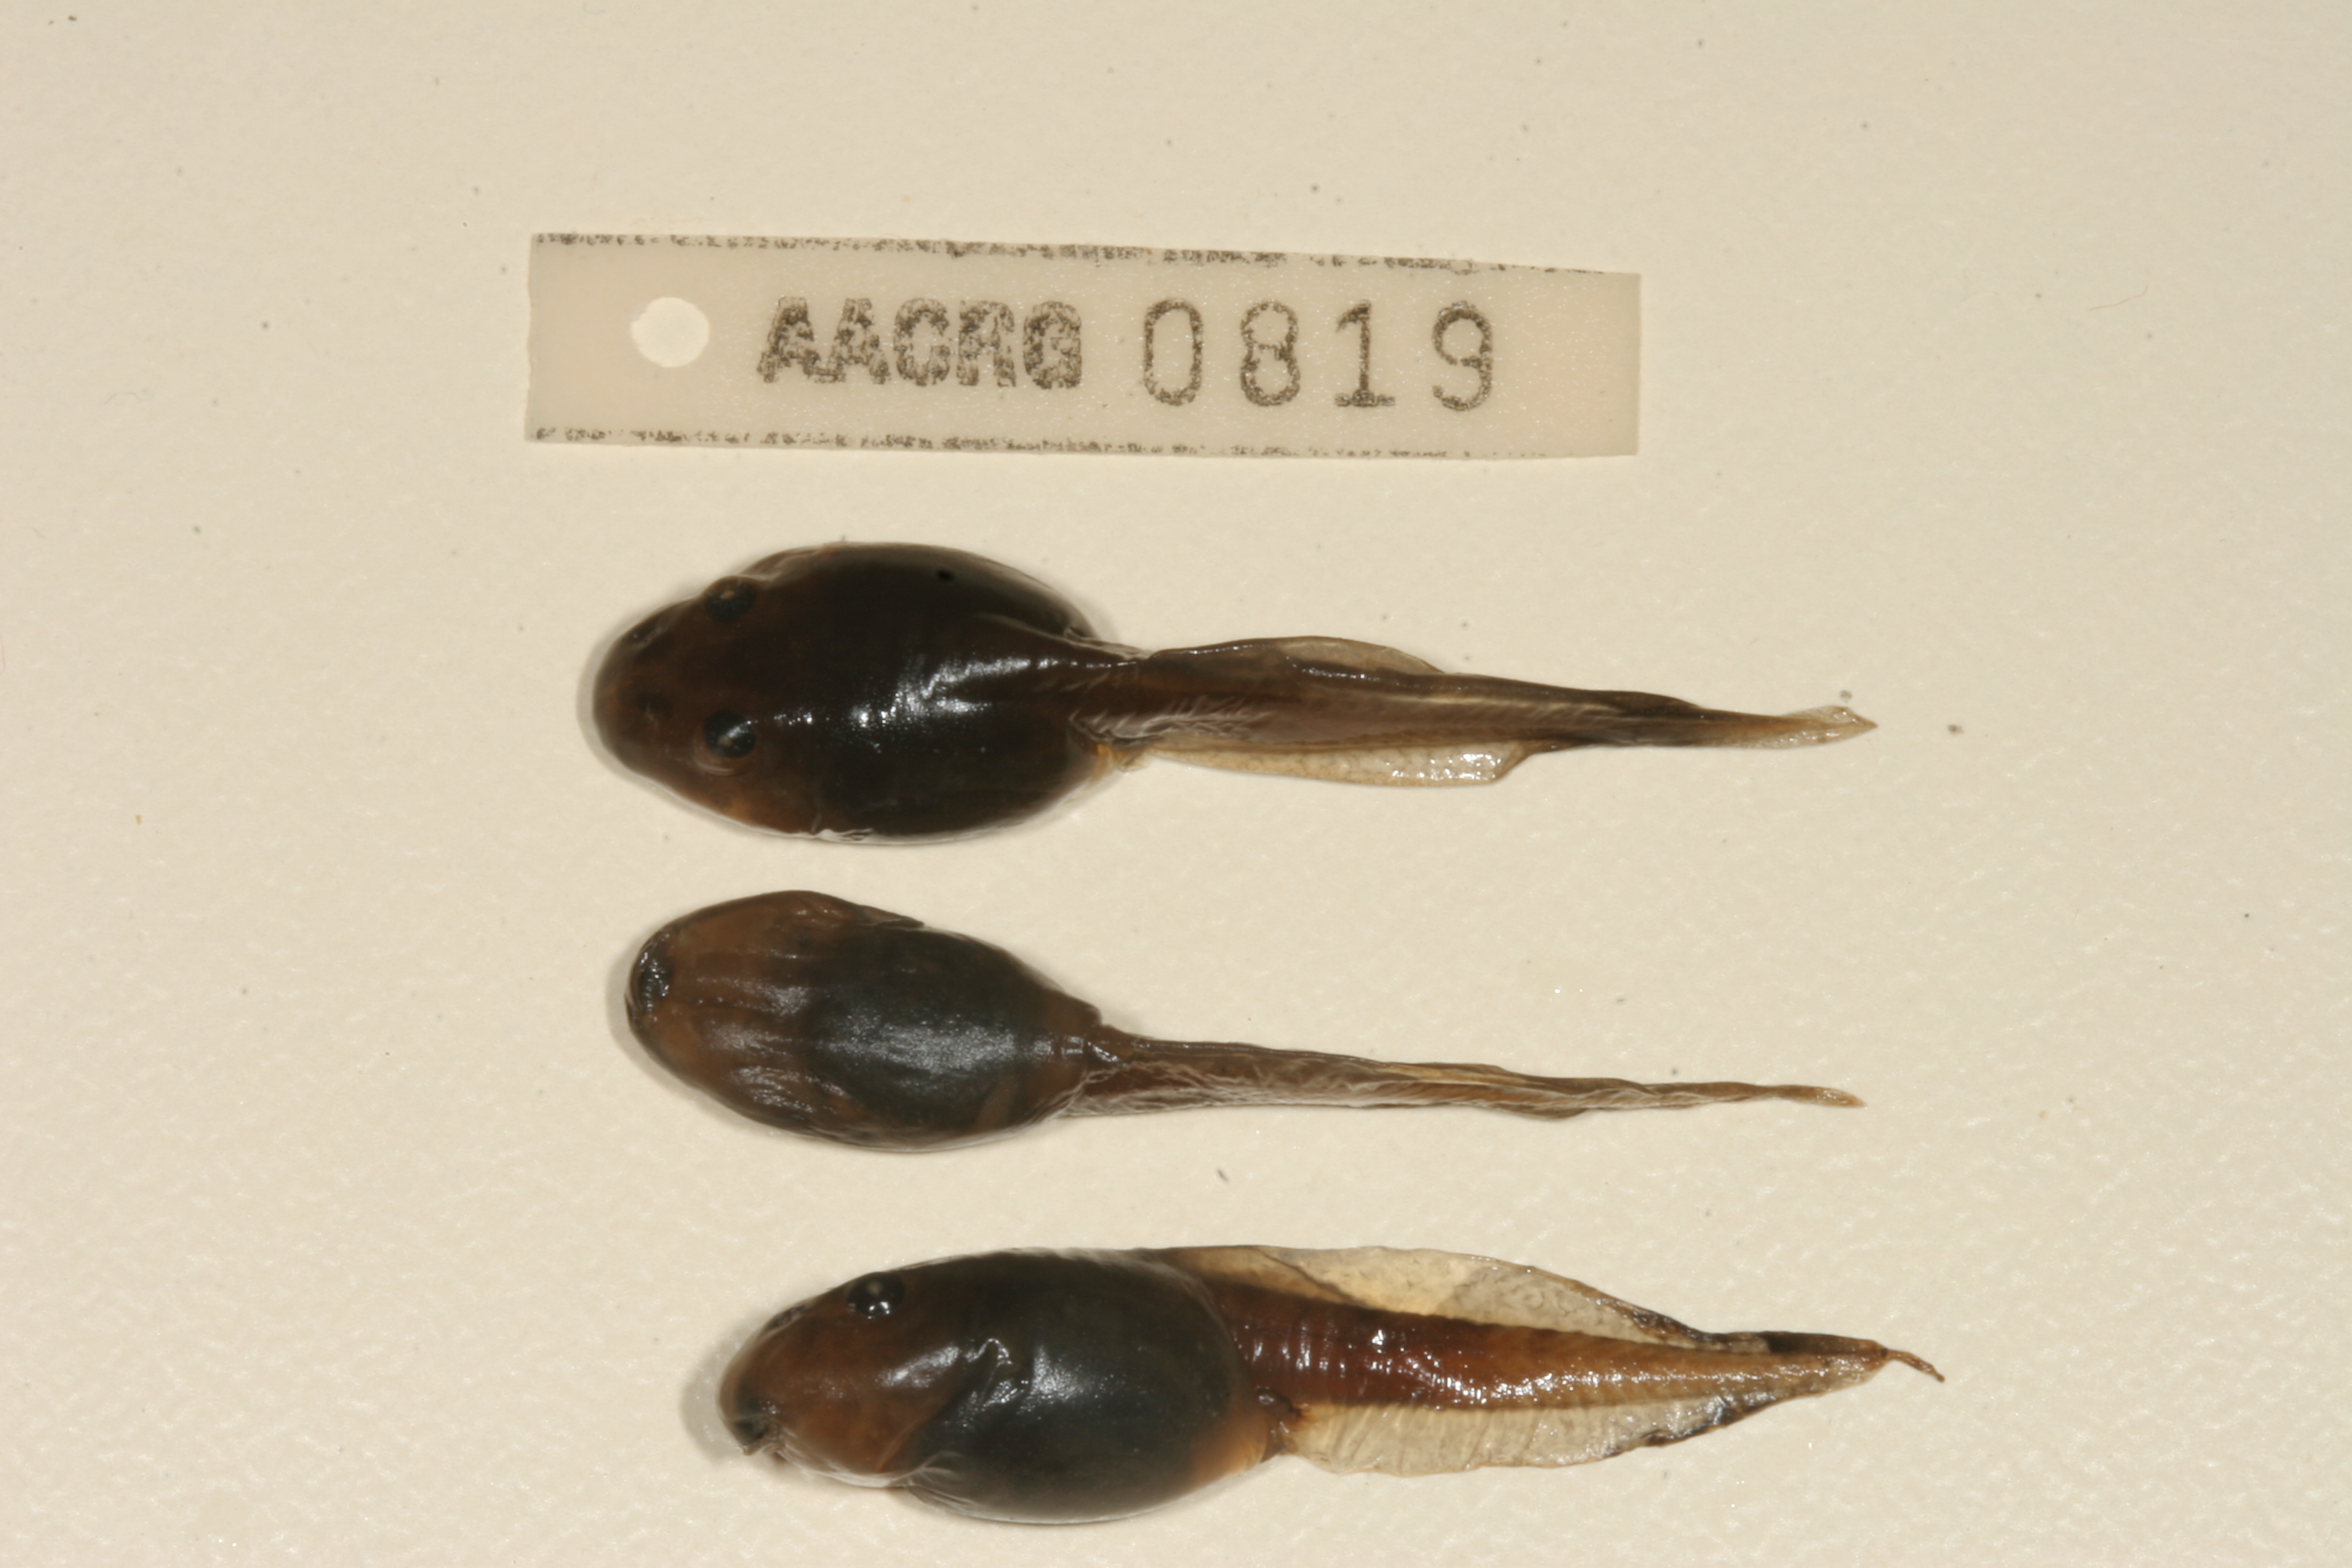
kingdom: Animalia
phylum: Chordata
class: Amphibia
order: Anura
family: Pyxicephalidae
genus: Strongylopus
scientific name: Strongylopus grayii
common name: Gray's stream frog
